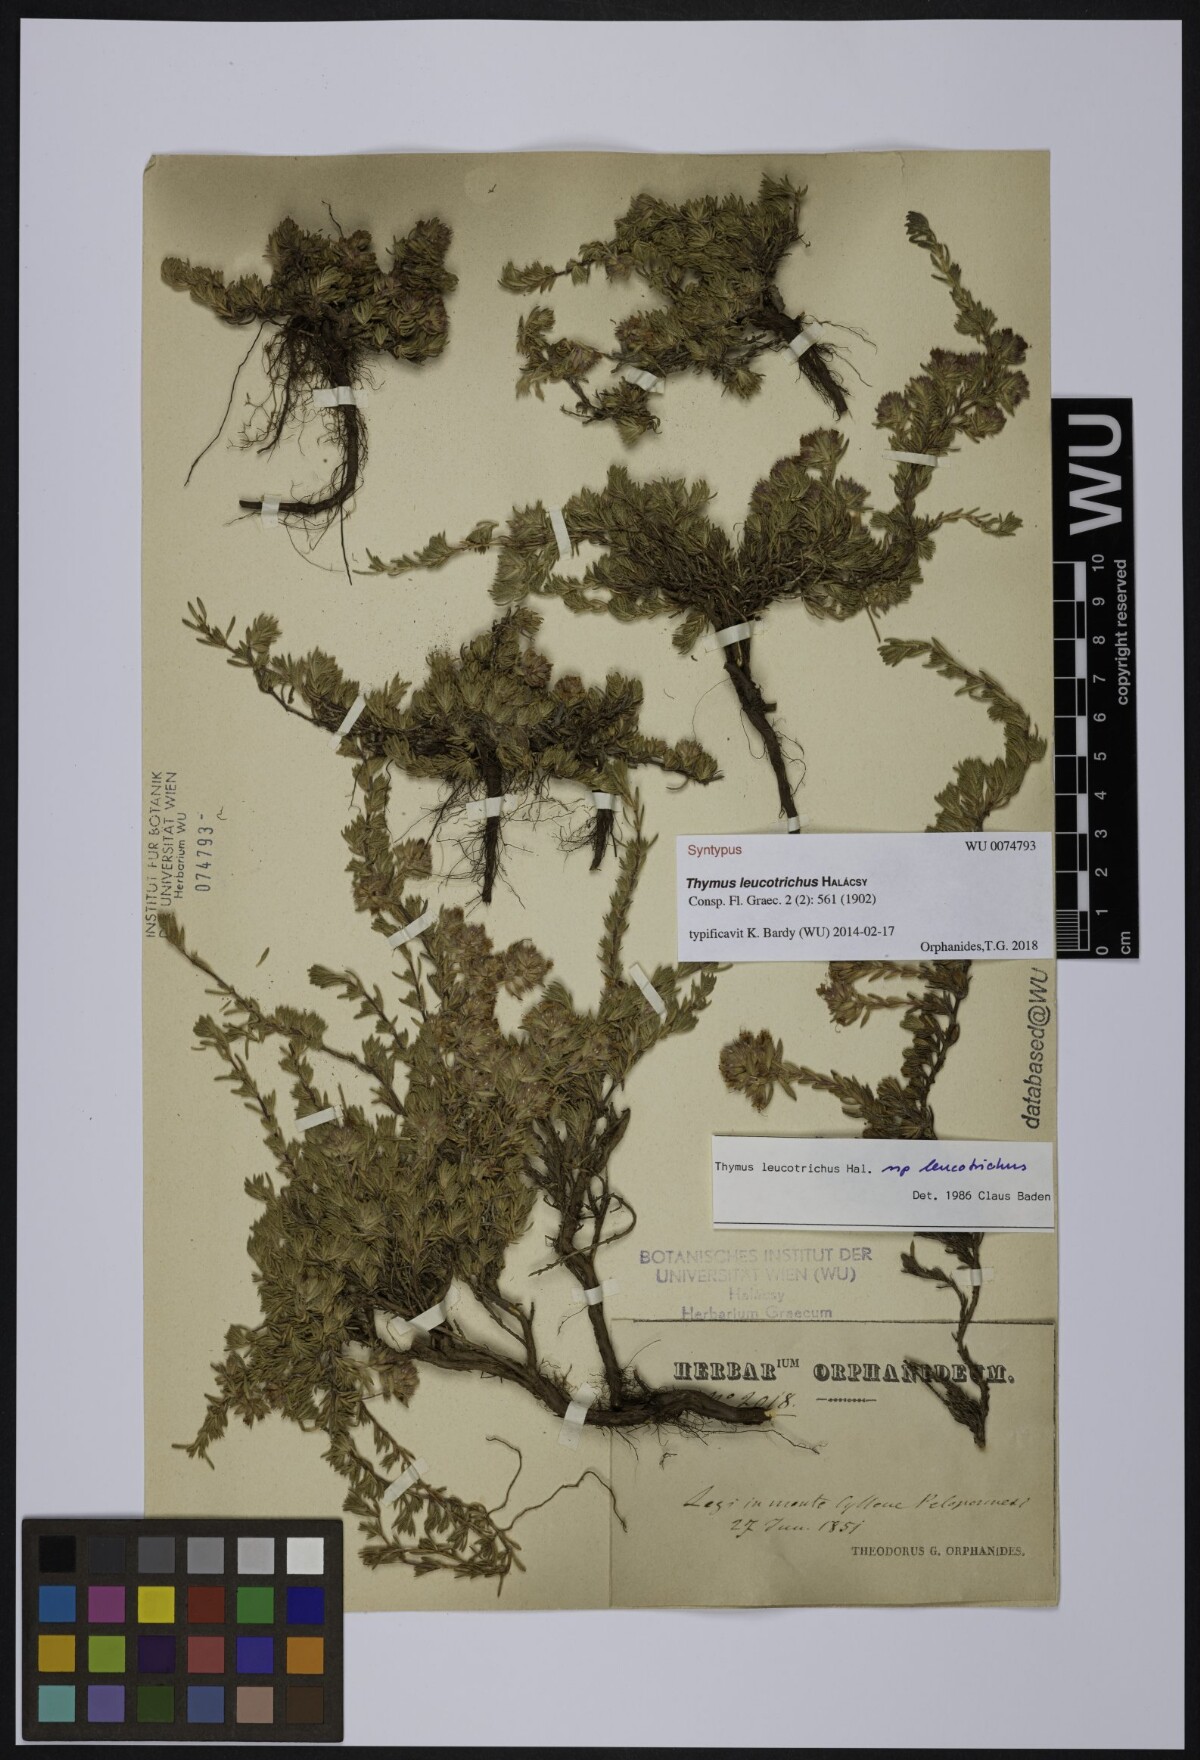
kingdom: Plantae
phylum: Tracheophyta
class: Magnoliopsida
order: Lamiales
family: Lamiaceae
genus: Thymus
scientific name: Thymus leucotrichus
